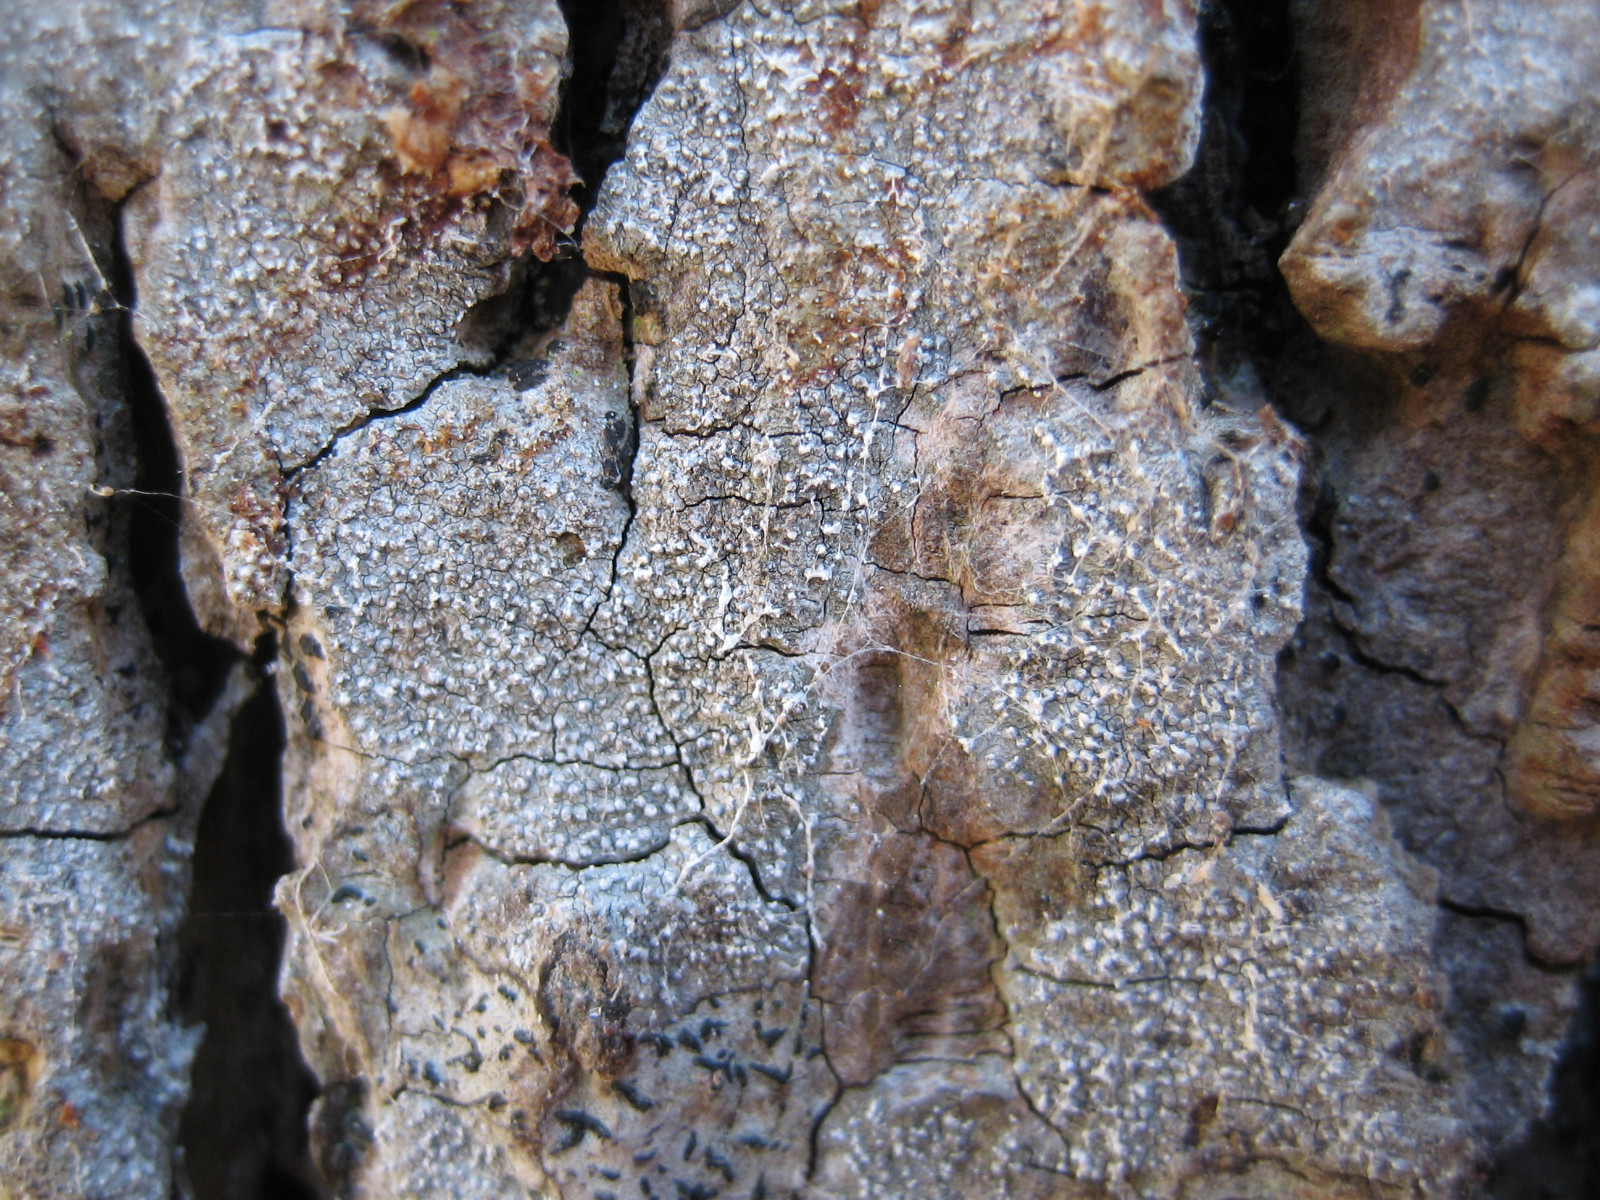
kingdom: Fungi
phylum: Ascomycota
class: Arthoniomycetes
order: Arthoniales
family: Opegraphaceae
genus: Opegrapha
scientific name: Opegrapha vermicellifera
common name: nåleprikket bogstavlav
